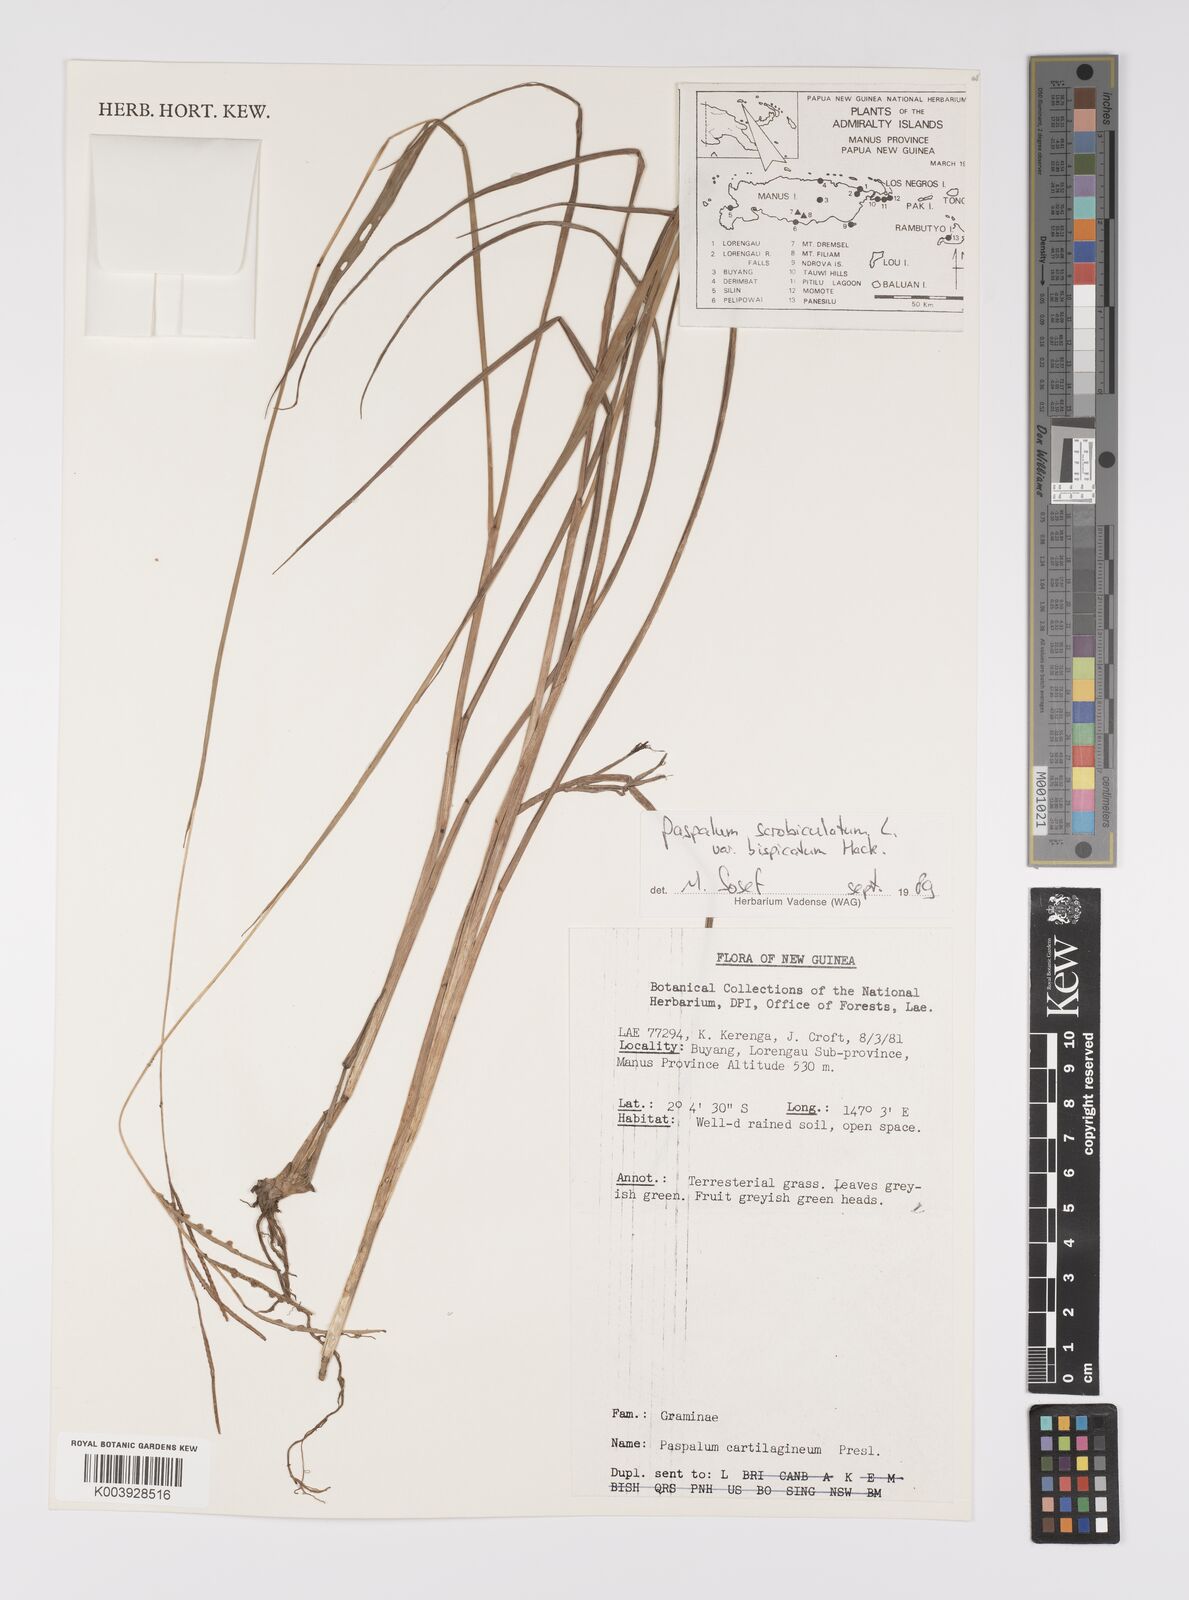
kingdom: Plantae
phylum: Tracheophyta
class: Liliopsida
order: Poales
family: Poaceae
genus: Paspalum
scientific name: Paspalum scrobiculatum
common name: Kodo millet
